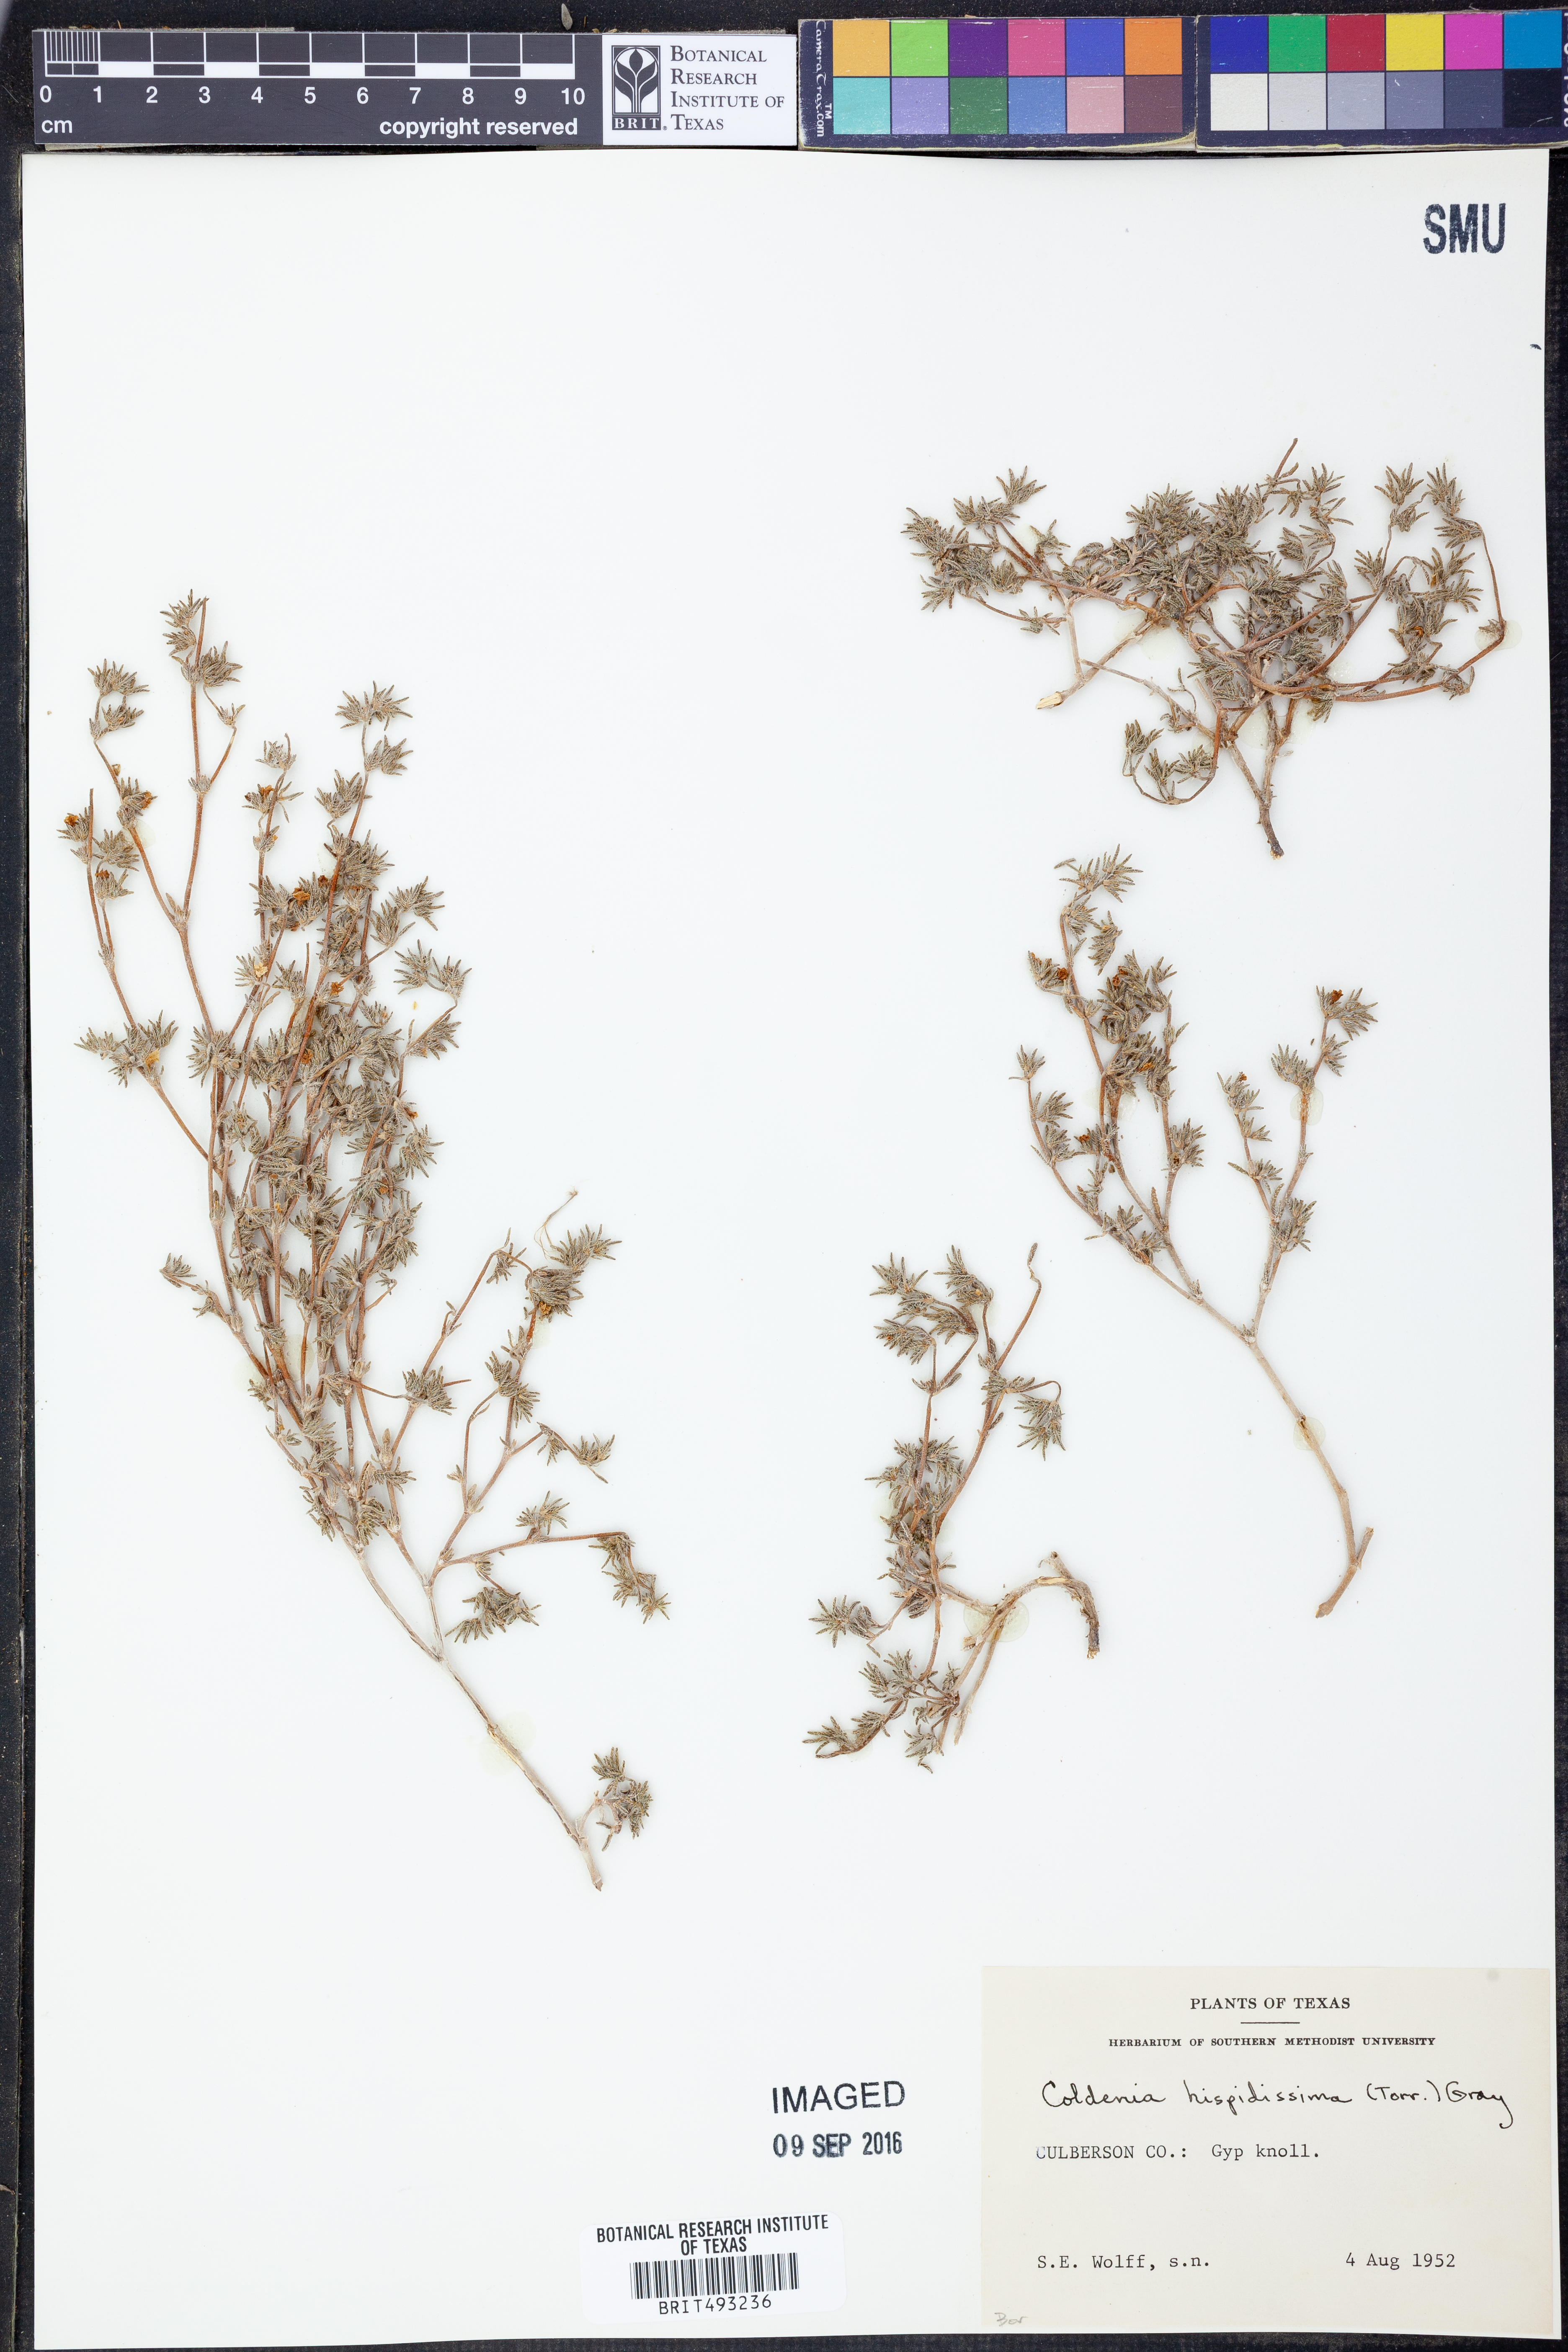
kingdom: Plantae
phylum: Tracheophyta
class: Magnoliopsida
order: Boraginales
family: Ehretiaceae
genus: Tiquilia
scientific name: Tiquilia hispidissima
